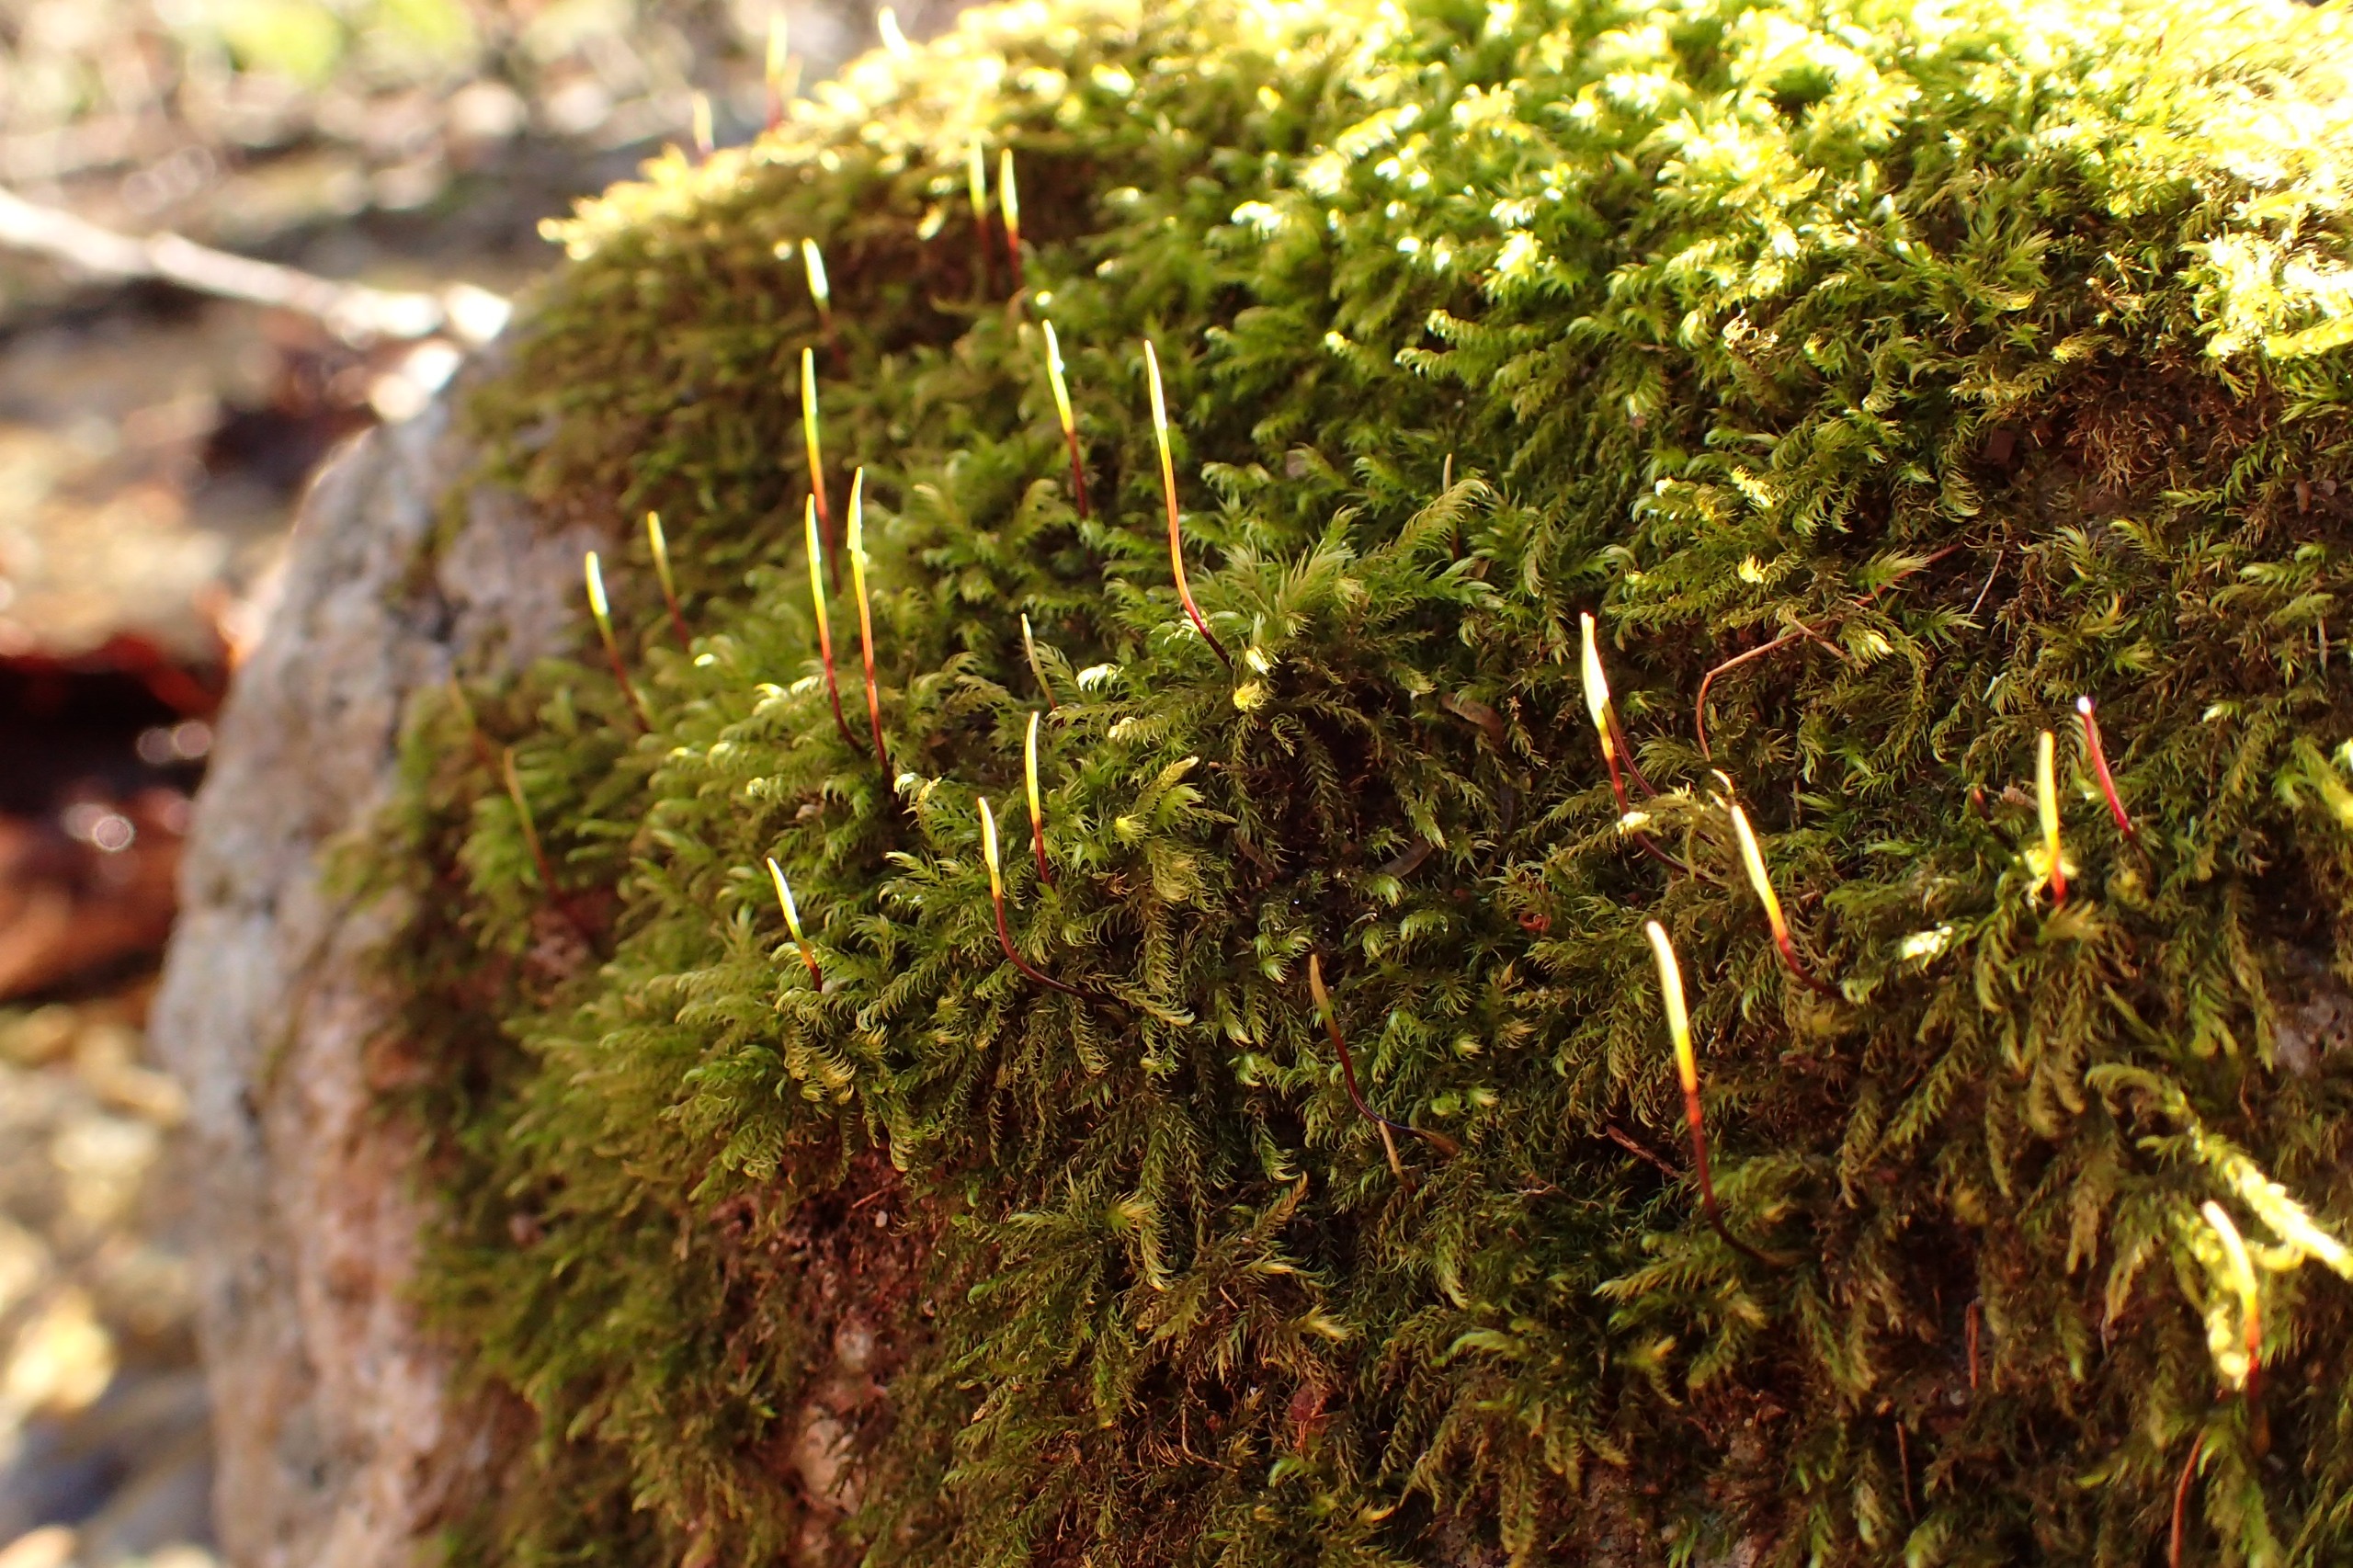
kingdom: Plantae
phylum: Bryophyta
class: Bryopsida
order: Hypnales
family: Amblystegiaceae
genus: Hygroamblystegium
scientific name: Hygroamblystegium tenax
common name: Stiv vandkrybmos
